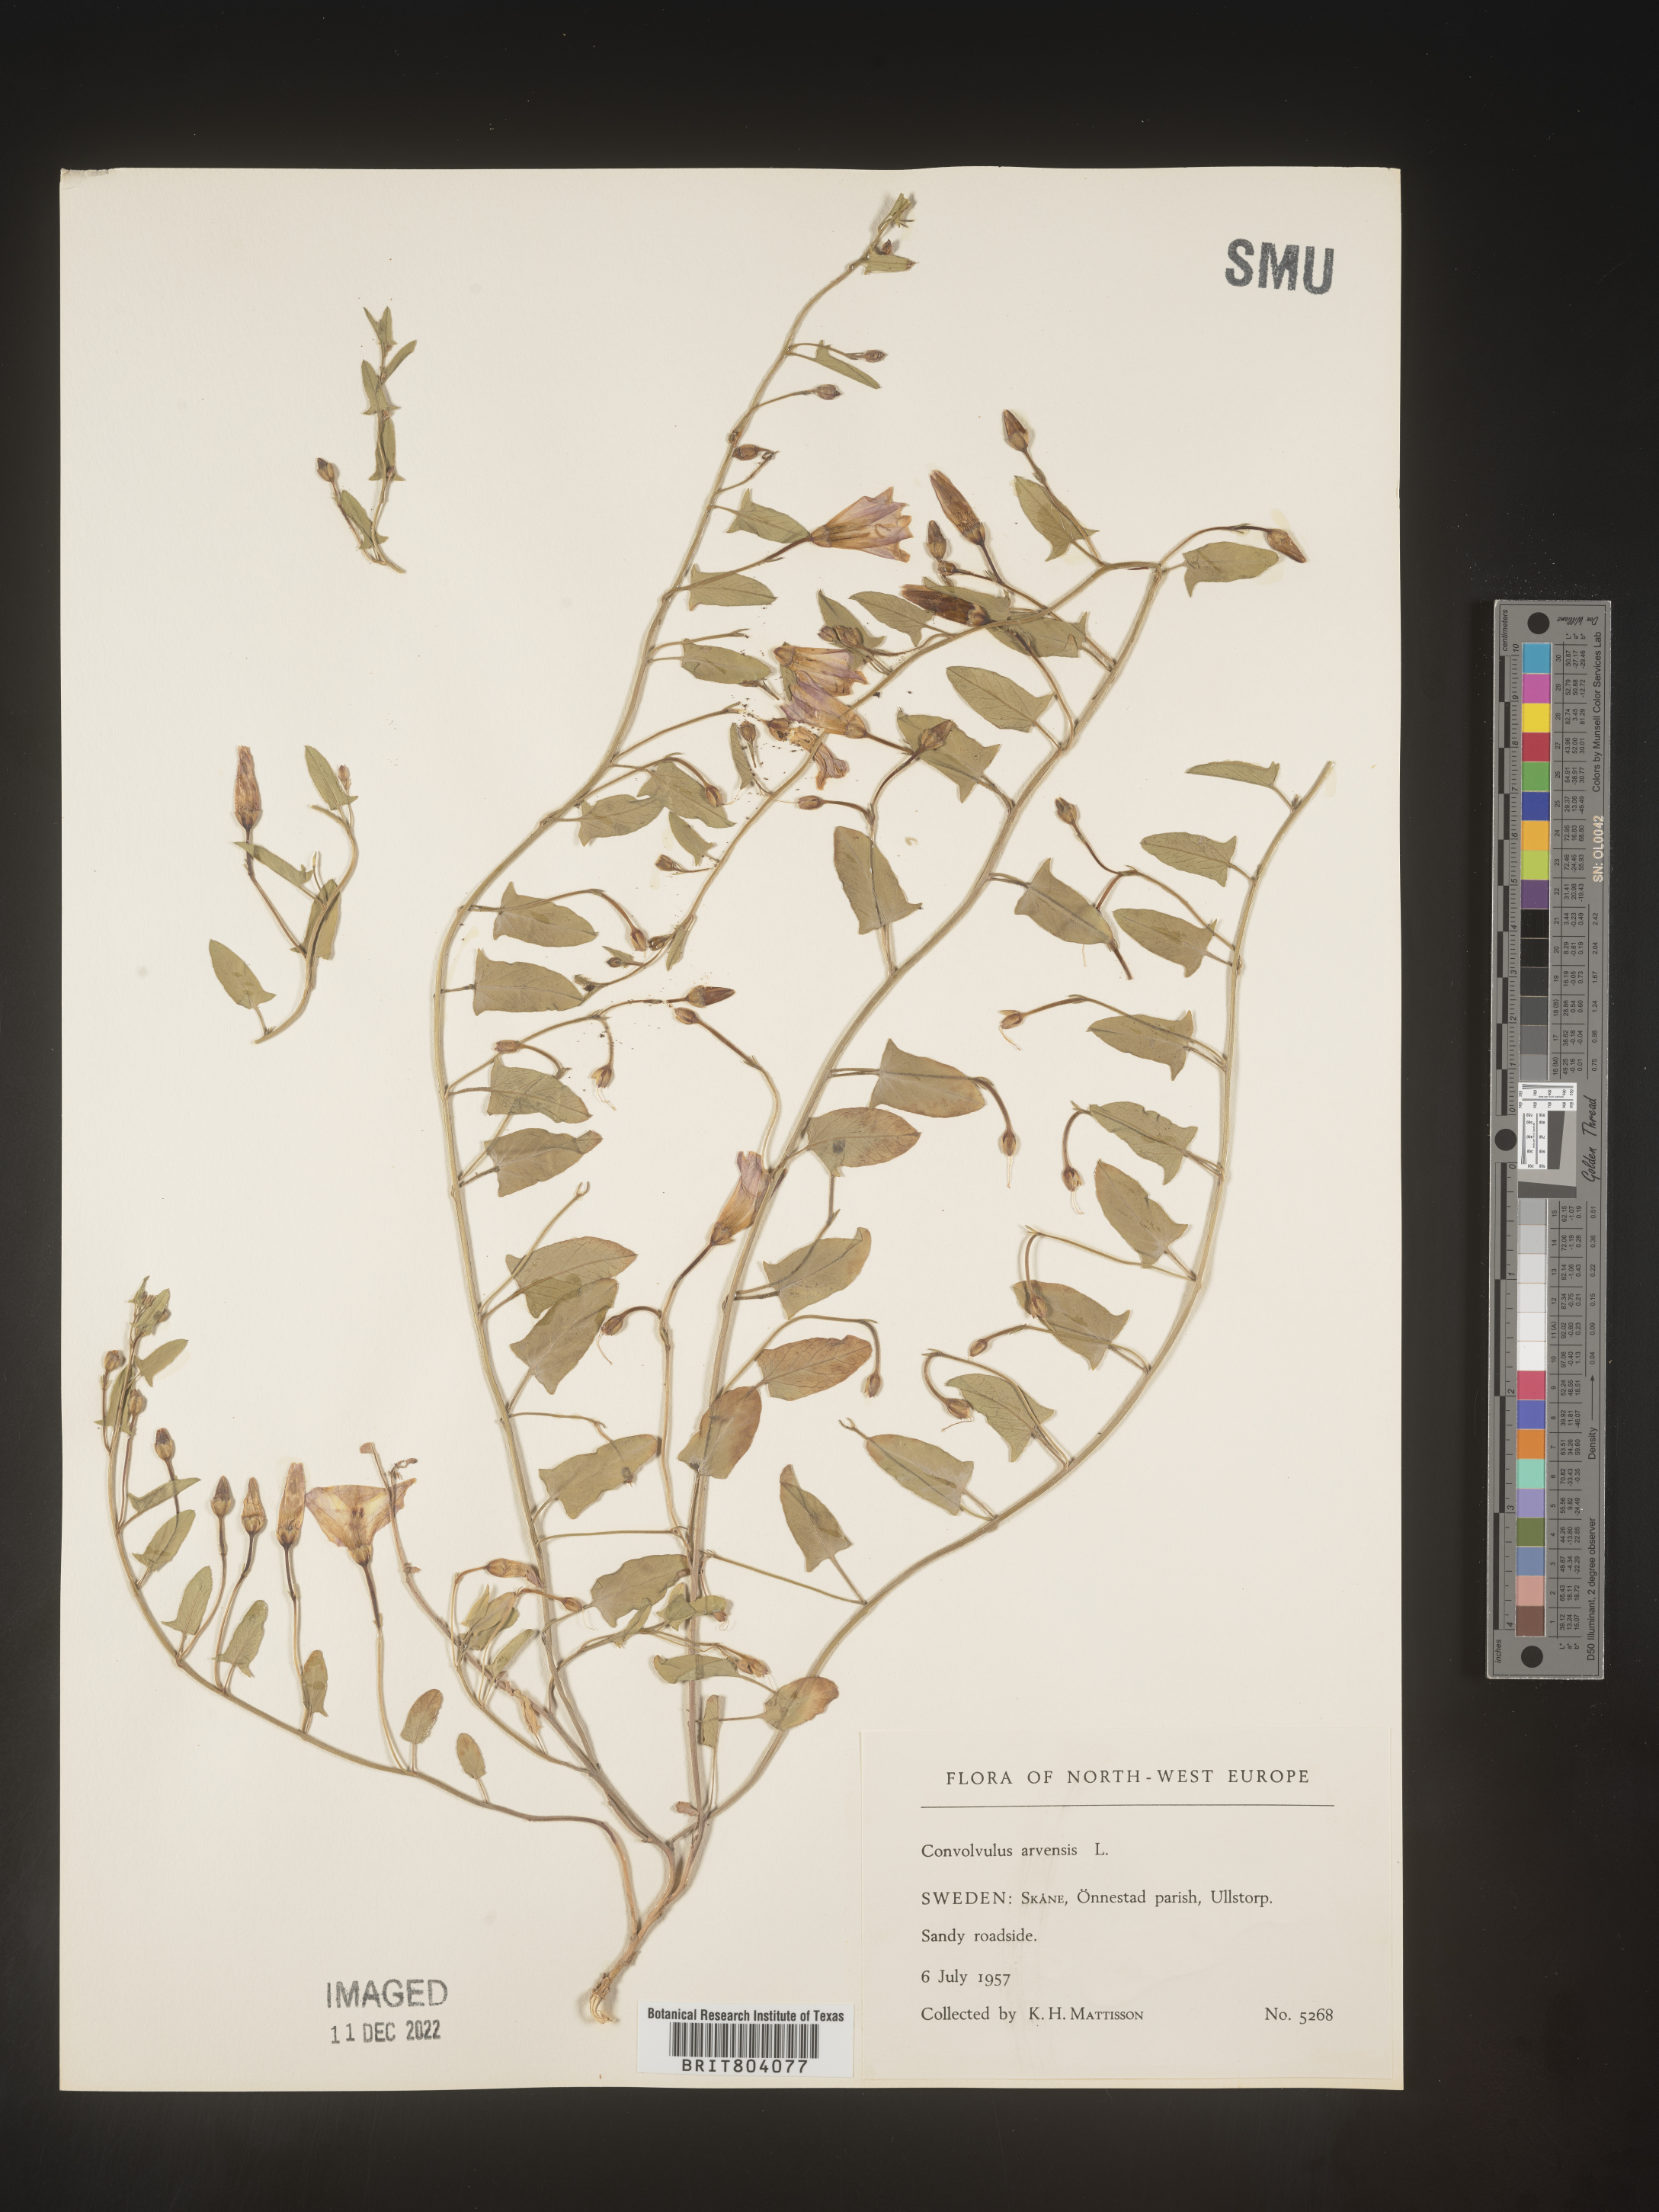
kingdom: Plantae
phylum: Tracheophyta
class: Magnoliopsida
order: Solanales
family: Convolvulaceae
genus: Convolvulus
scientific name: Convolvulus
